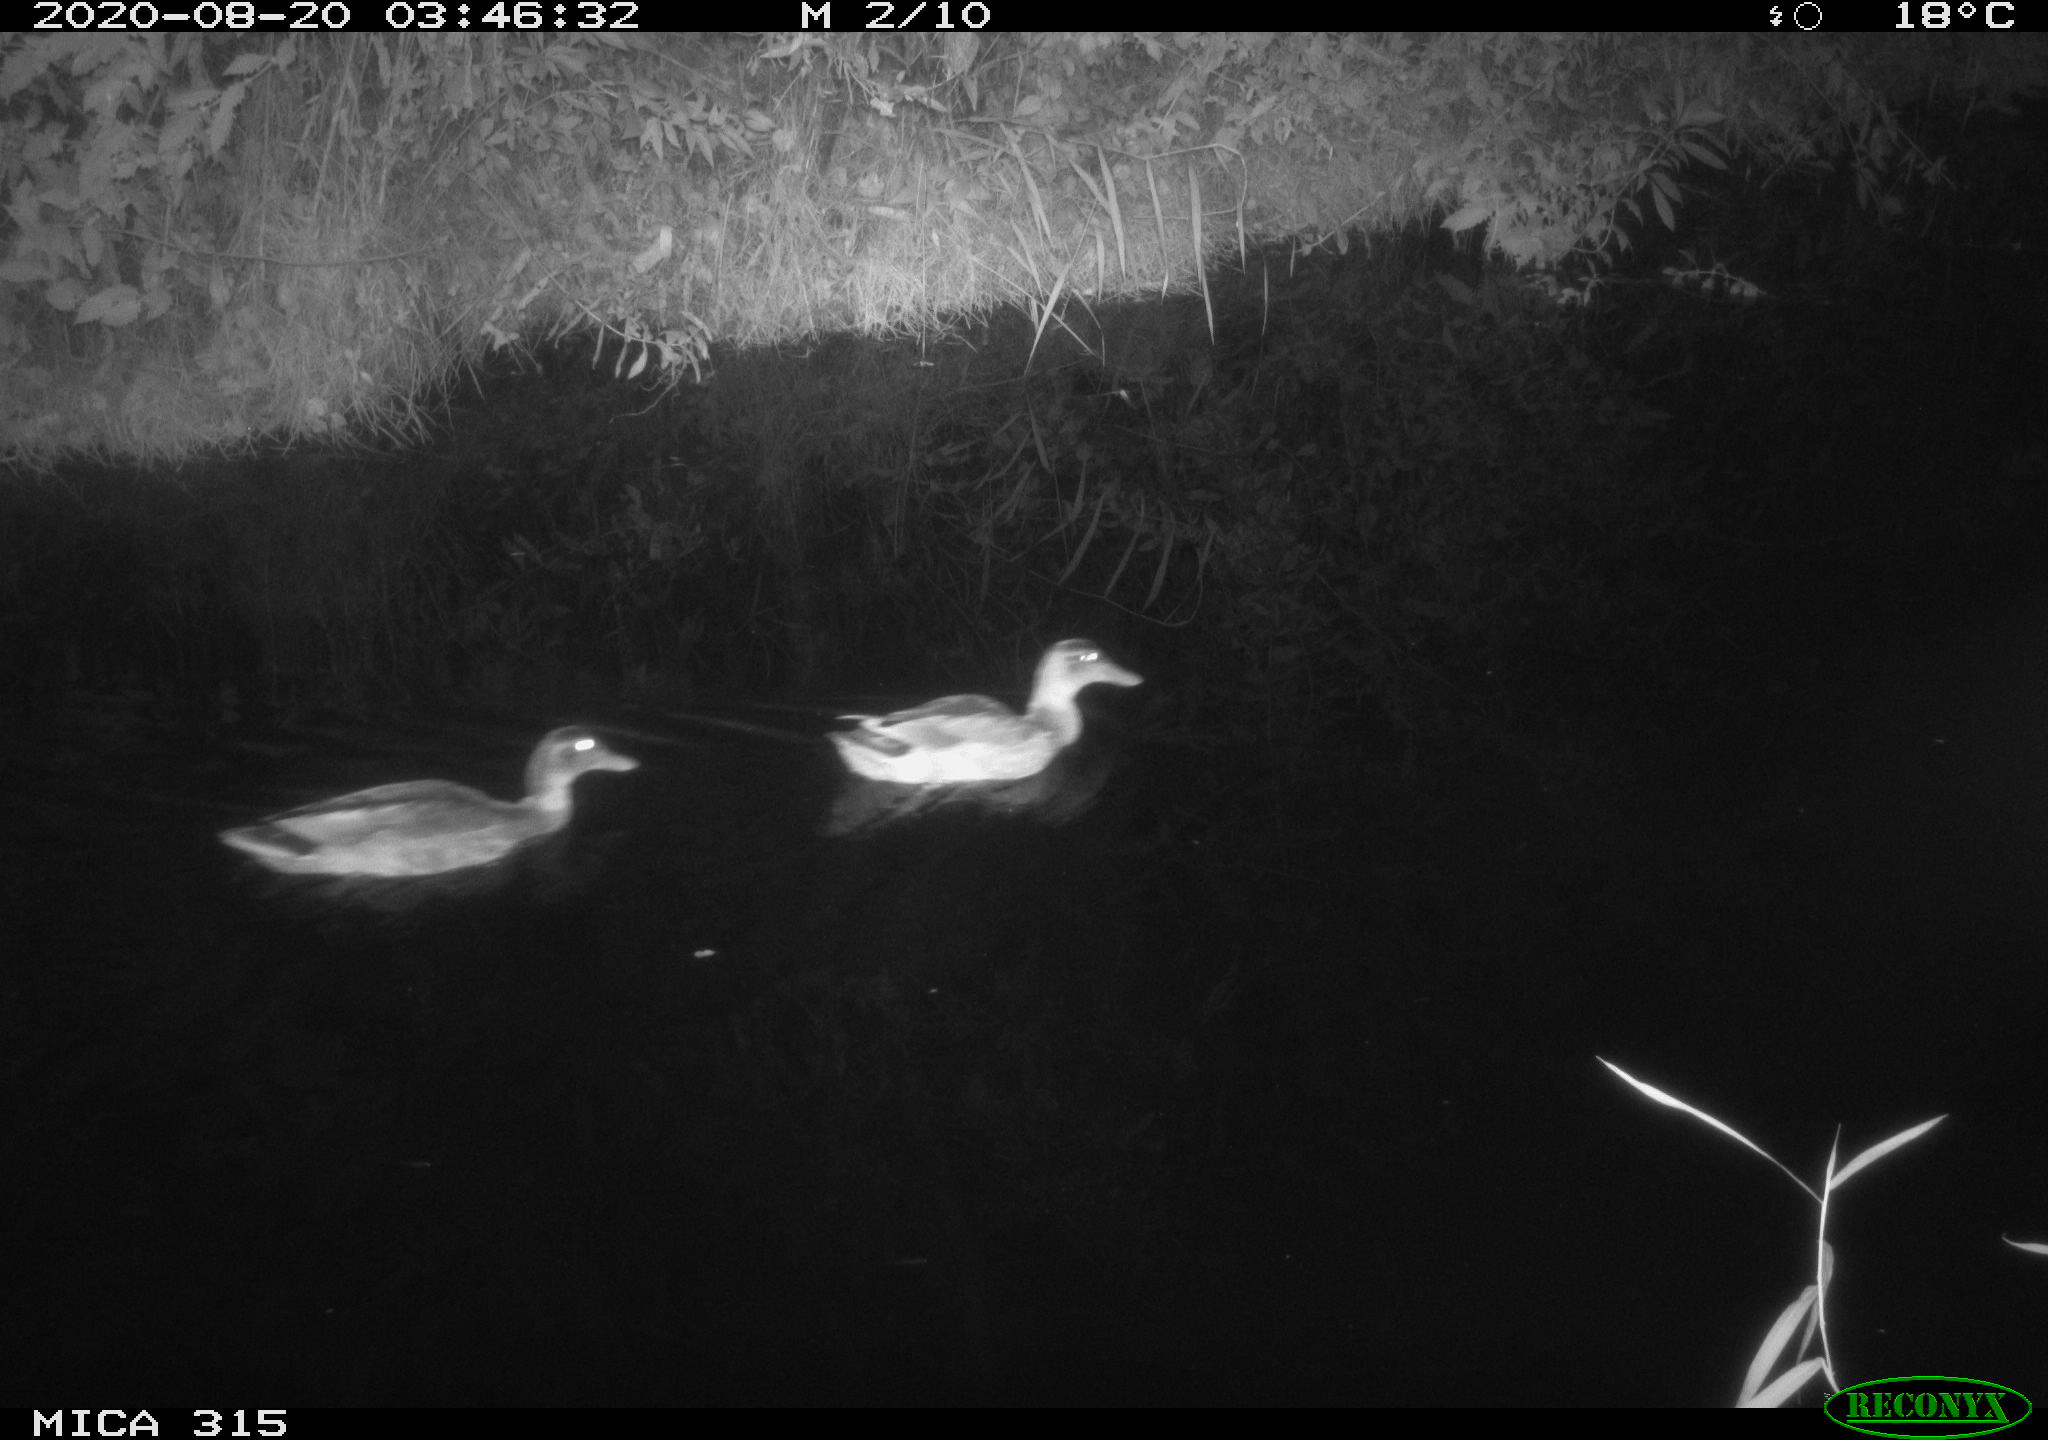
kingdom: Animalia
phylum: Chordata
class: Aves
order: Anseriformes
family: Anatidae
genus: Anas
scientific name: Anas platyrhynchos
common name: Mallard
